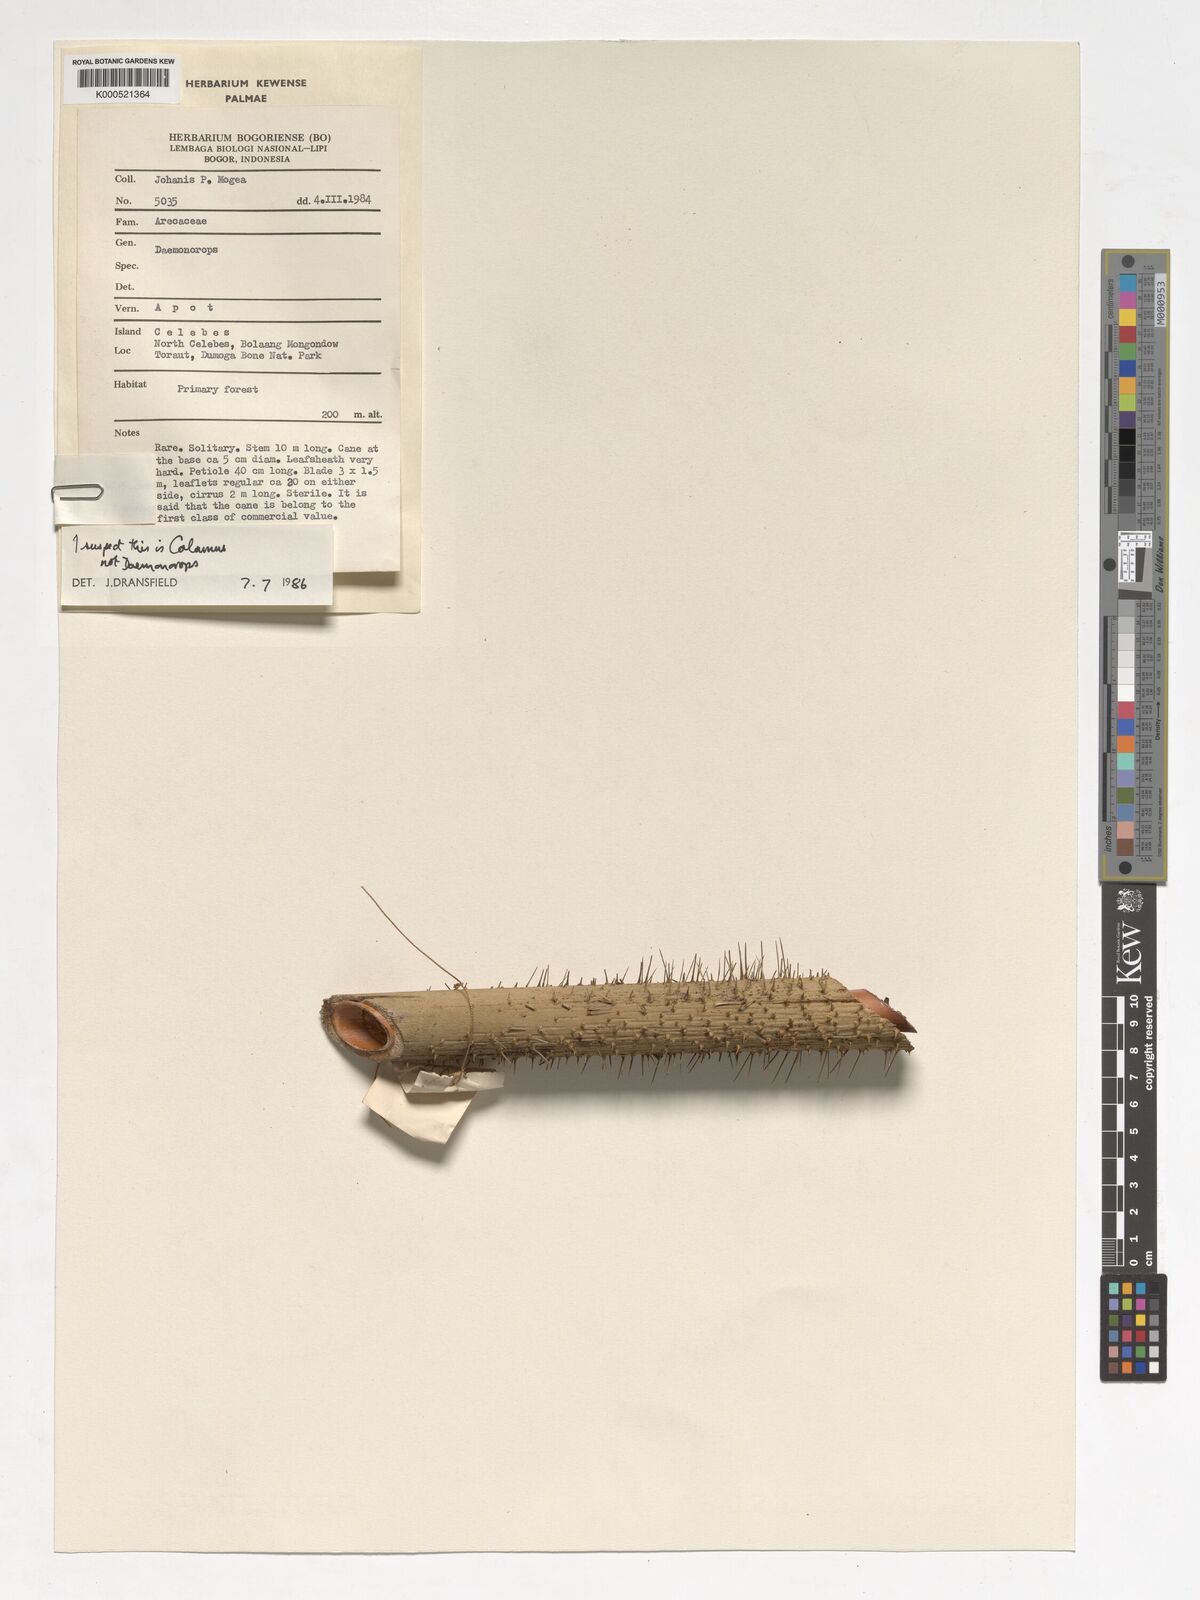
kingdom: Plantae
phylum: Tracheophyta
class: Liliopsida
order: Arecales
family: Arecaceae
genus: Calamus
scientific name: Calamus moseleyanus
